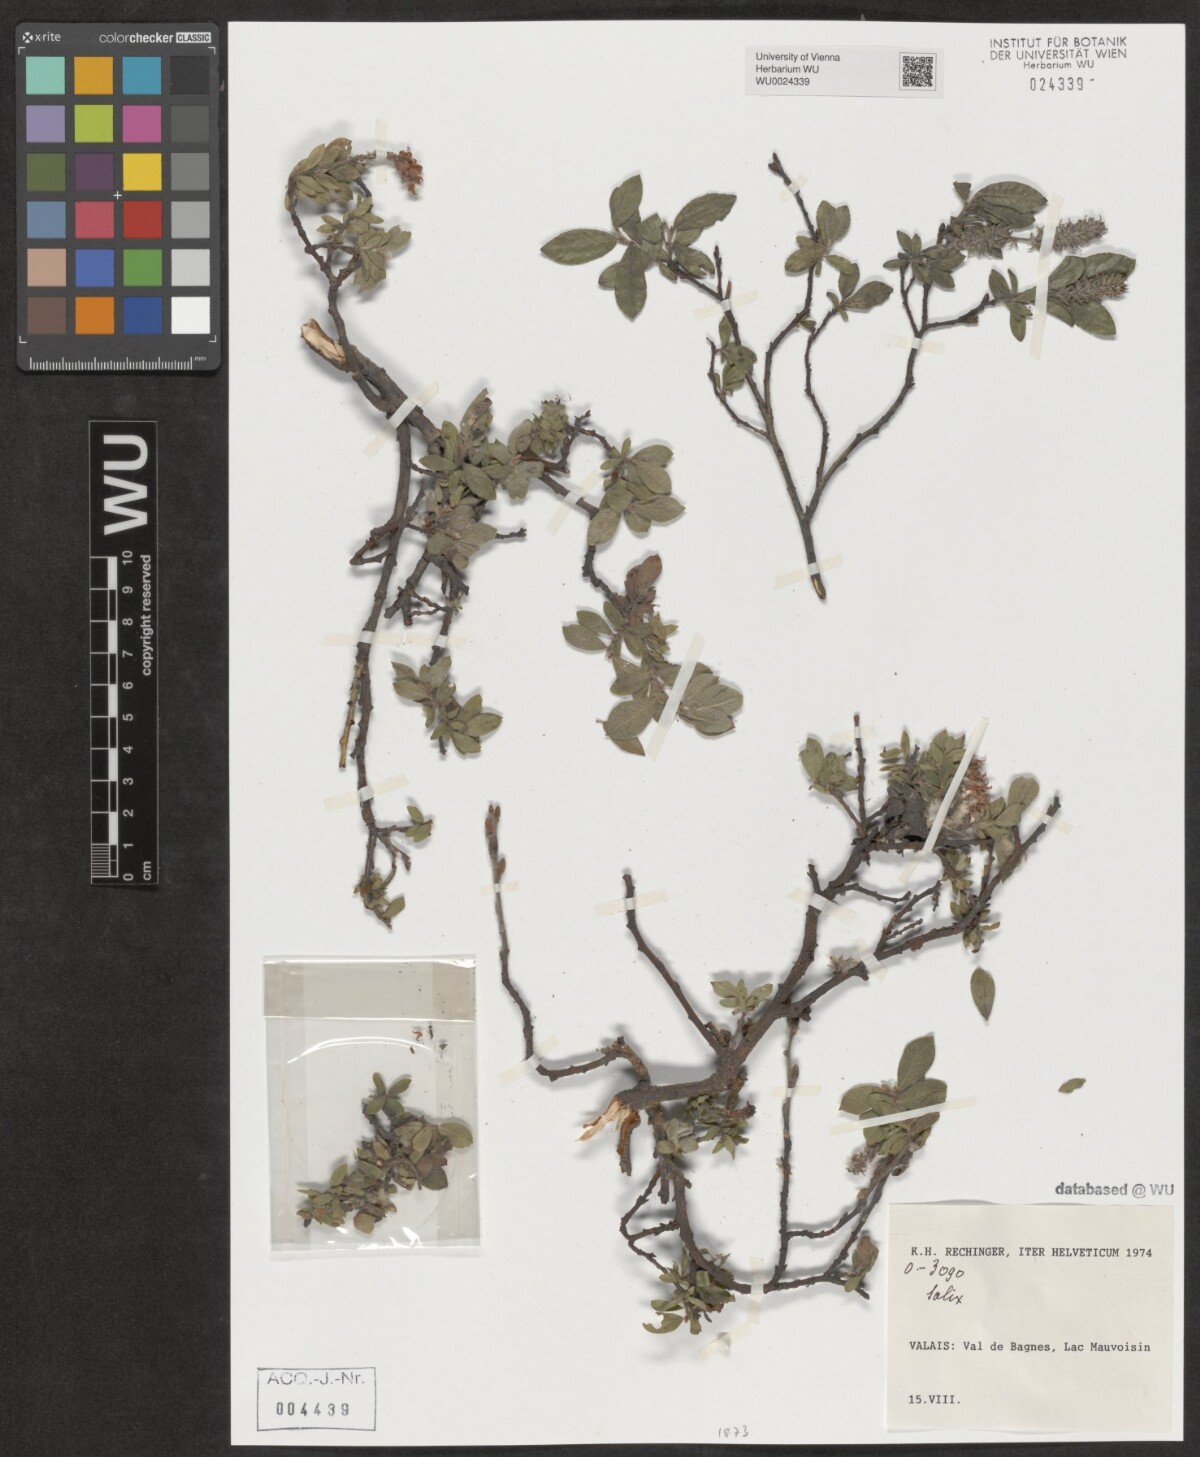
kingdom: Plantae
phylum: Tracheophyta
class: Magnoliopsida
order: Malpighiales
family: Salicaceae
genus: Salix
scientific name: Salix
